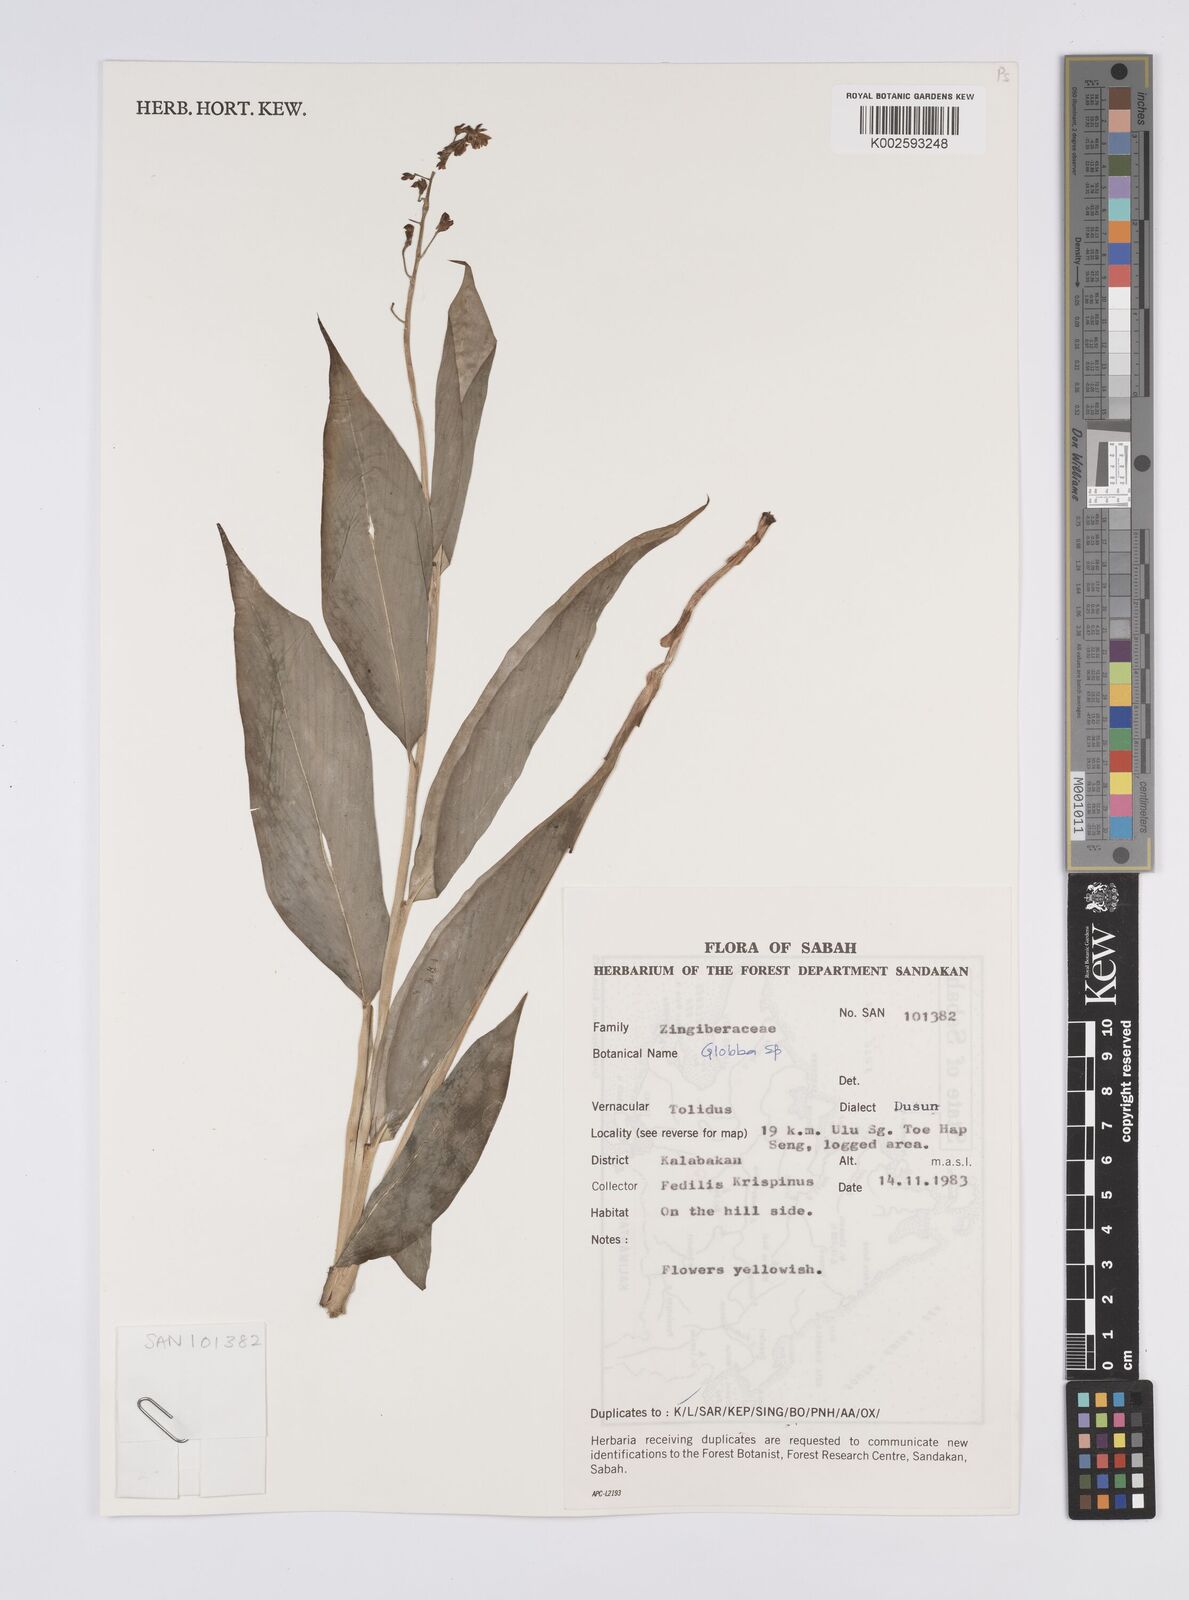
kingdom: Plantae
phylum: Tracheophyta
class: Liliopsida
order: Zingiberales
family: Zingiberaceae
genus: Globba
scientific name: Globba
